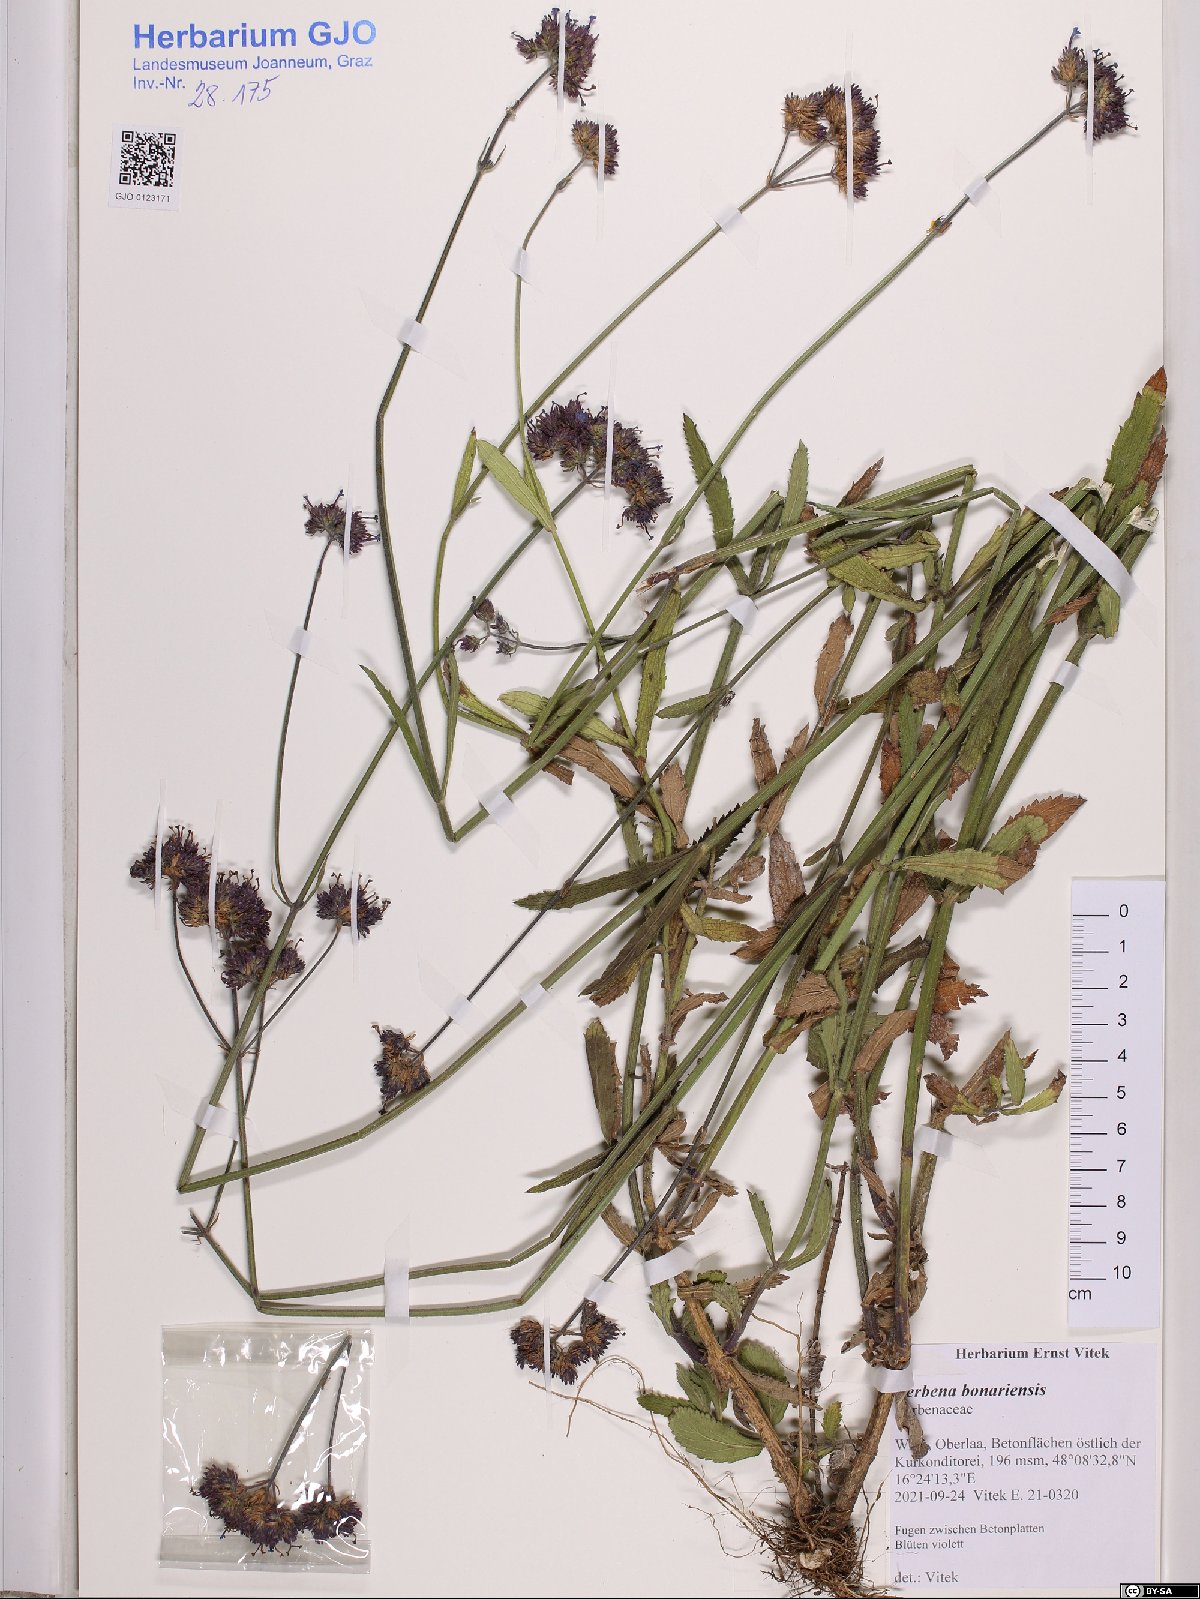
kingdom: Plantae
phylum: Tracheophyta
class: Magnoliopsida
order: Lamiales
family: Verbenaceae
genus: Verbena
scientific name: Verbena bonariensis
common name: Purpletop vervain
